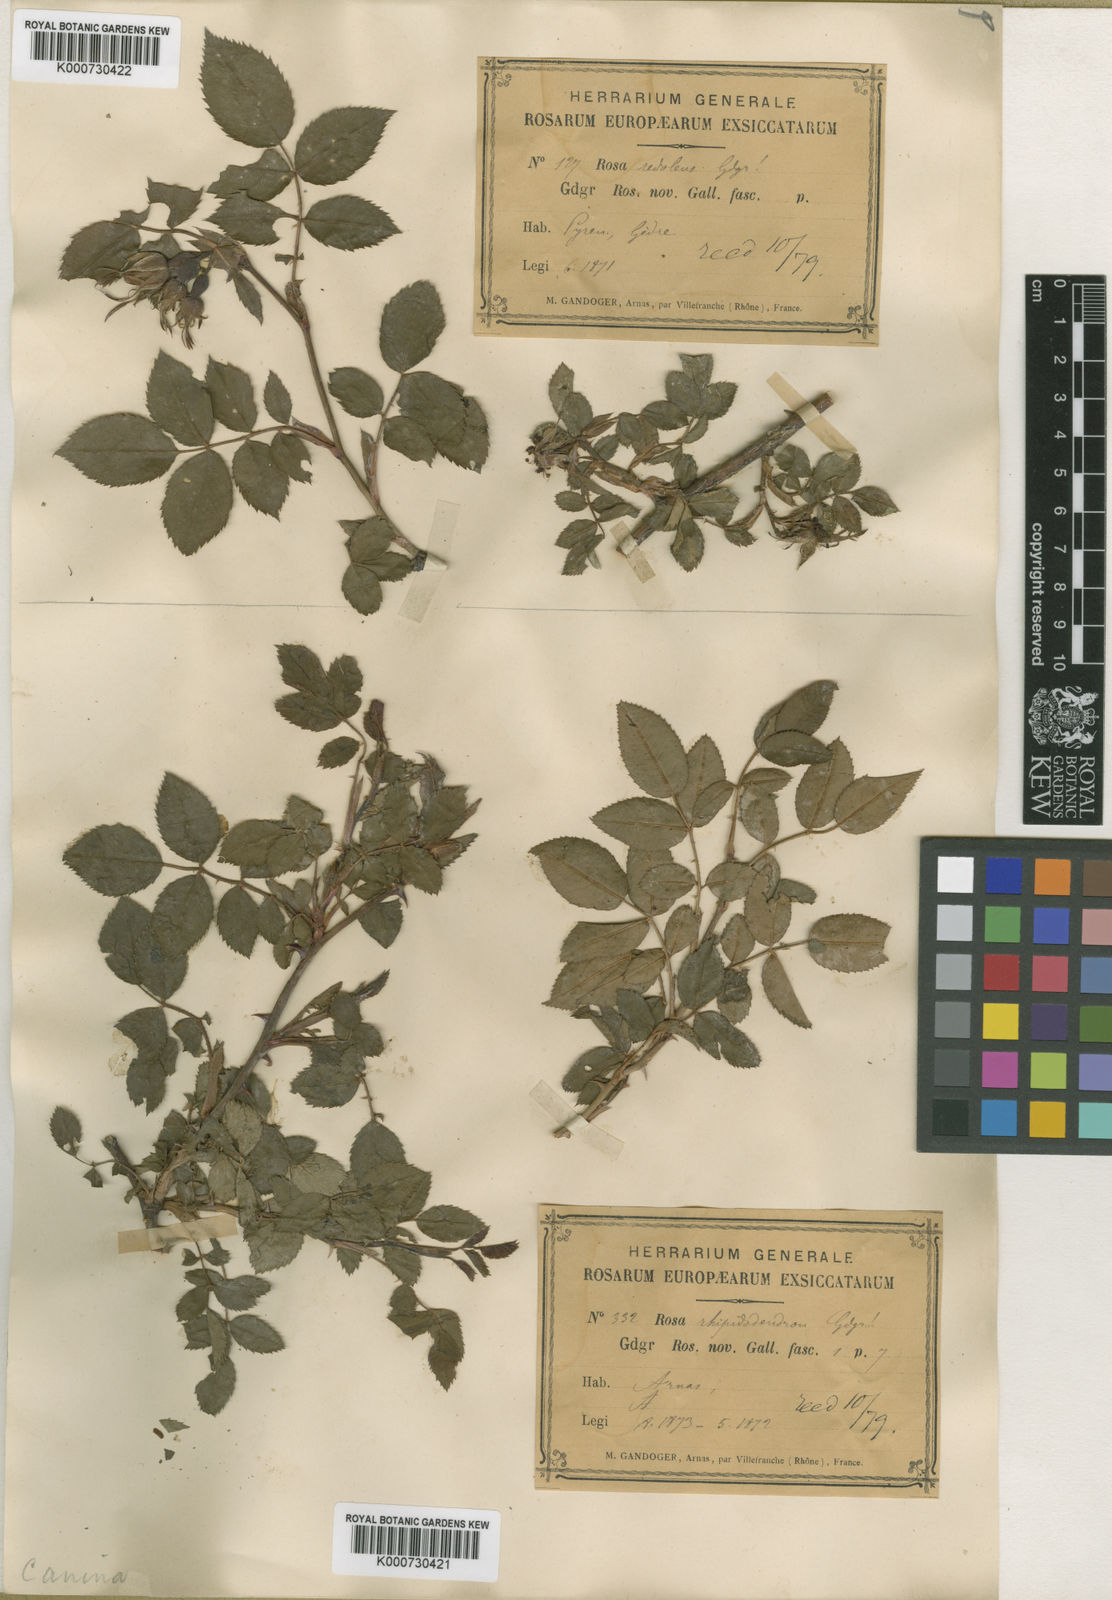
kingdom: Plantae
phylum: Tracheophyta
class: Magnoliopsida
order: Rosales
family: Rosaceae
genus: Rosa
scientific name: Rosa canina
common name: Dog rose
